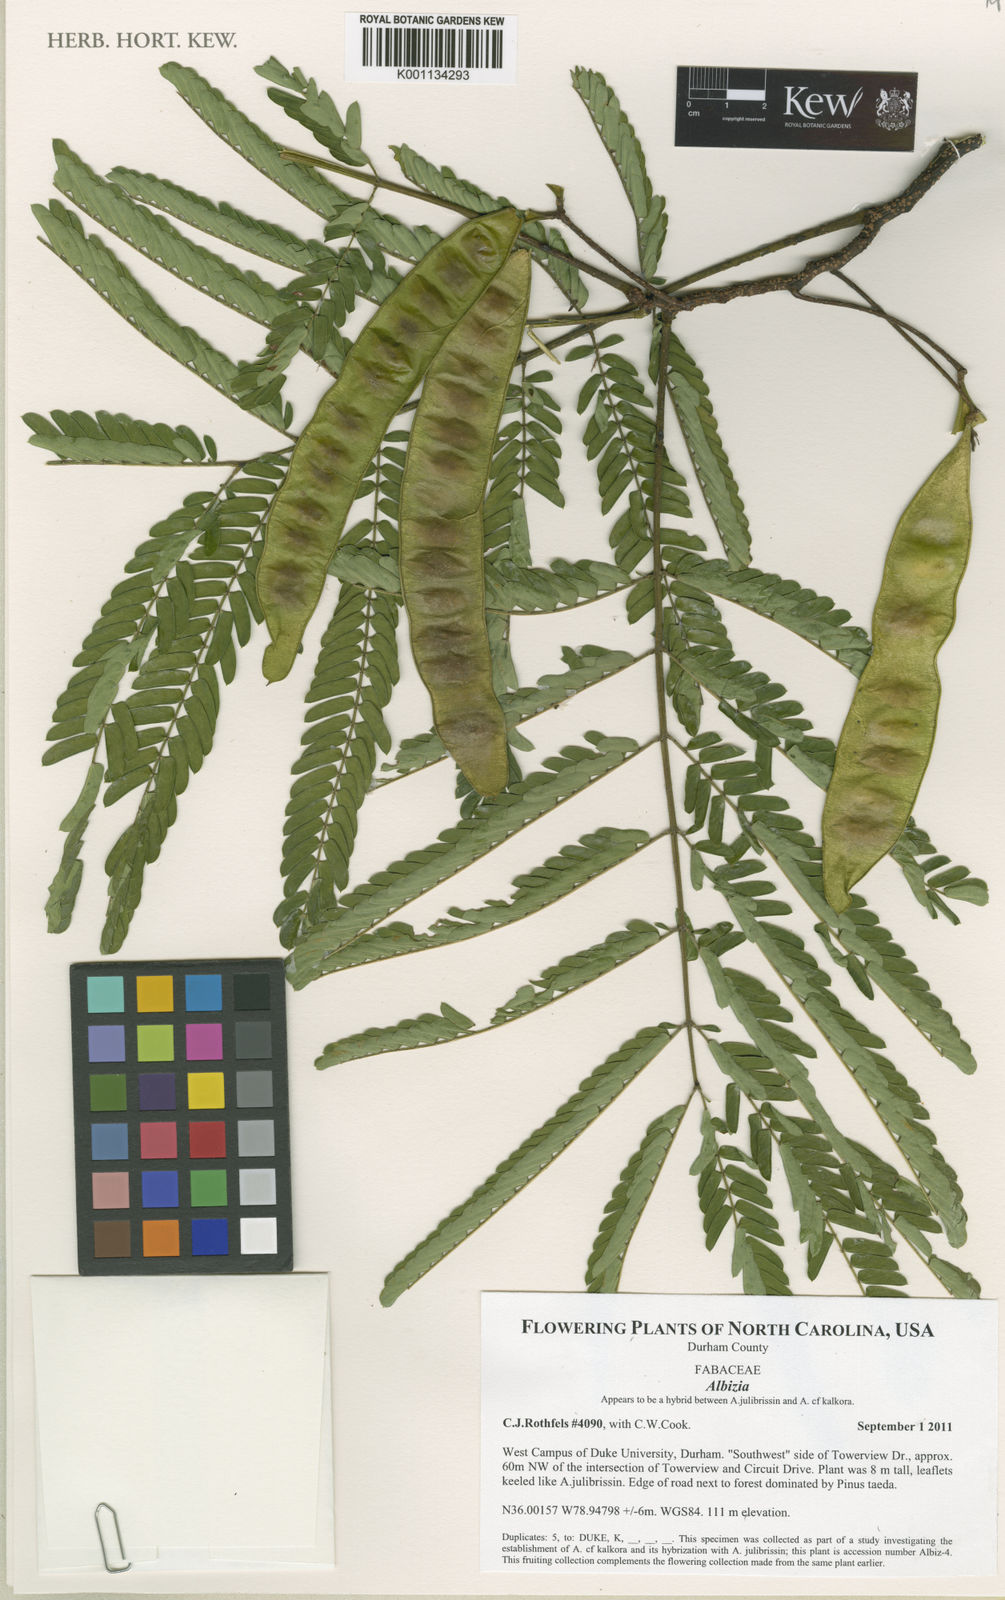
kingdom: Plantae
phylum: Tracheophyta
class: Magnoliopsida
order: Fabales
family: Fabaceae
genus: Albizia
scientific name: Albizia
